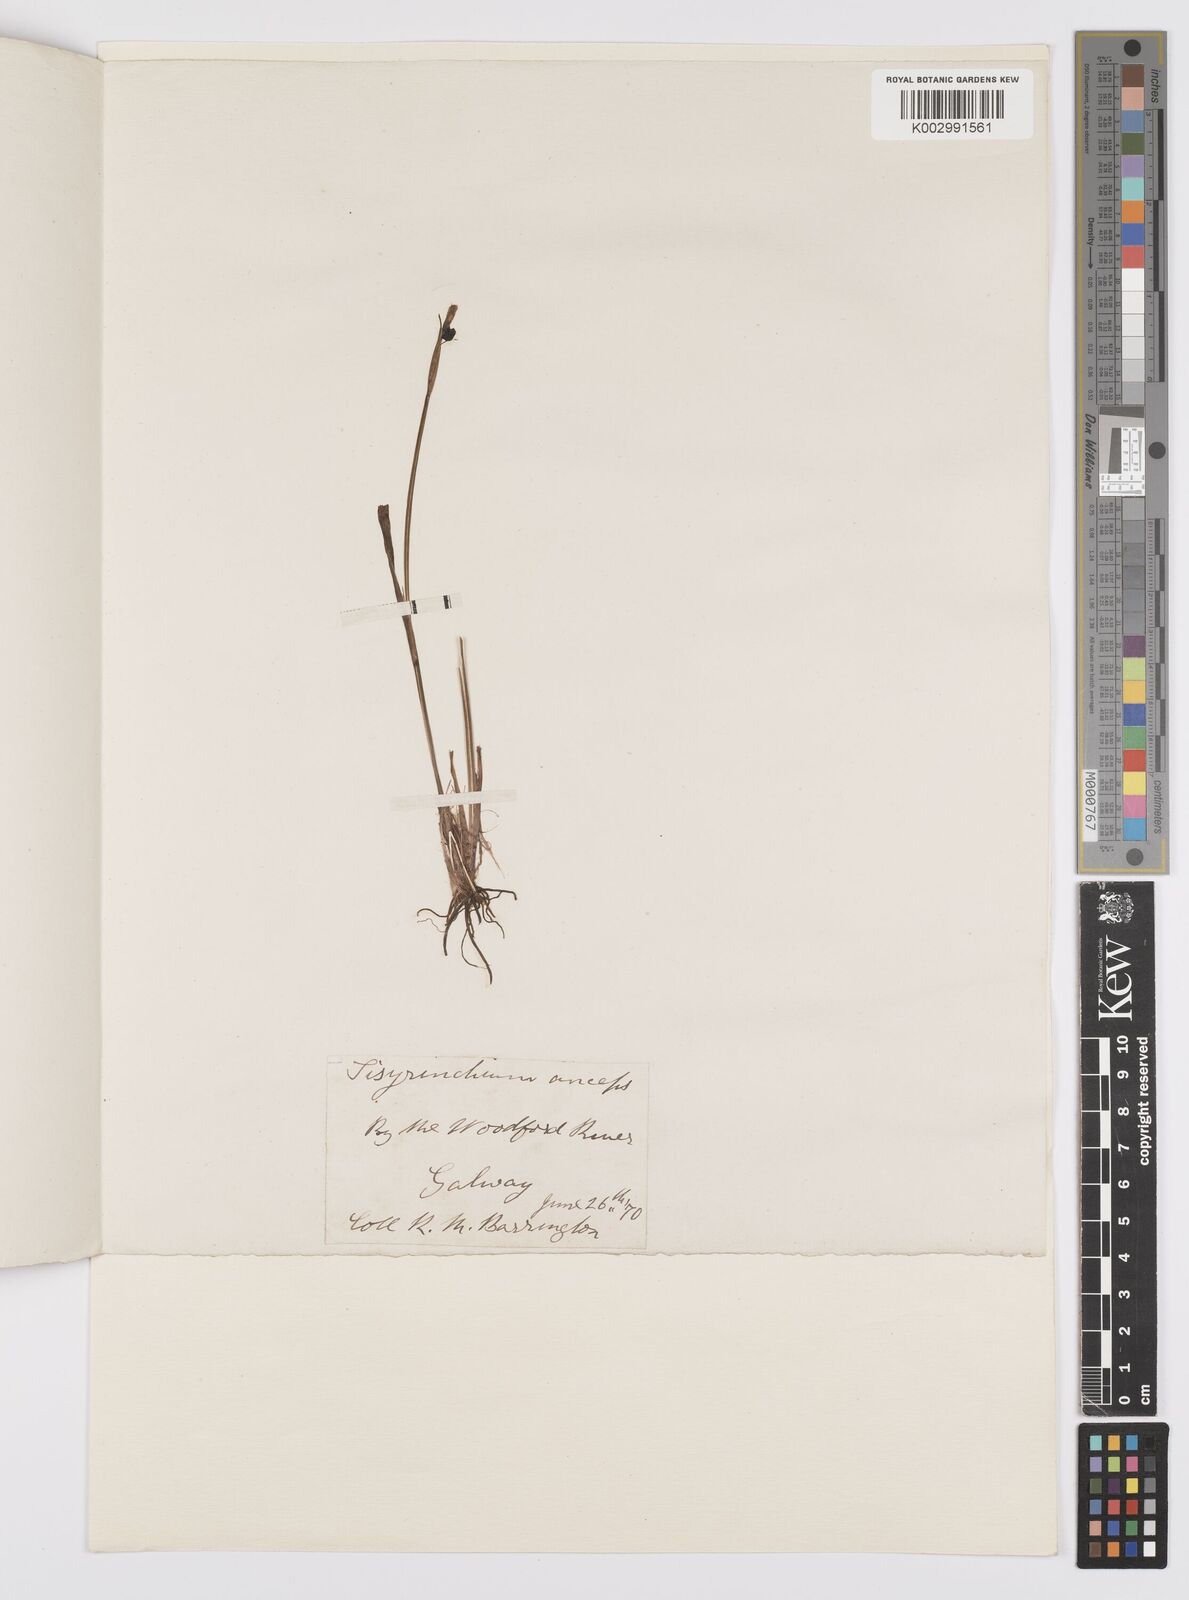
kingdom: Plantae
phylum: Tracheophyta
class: Liliopsida
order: Asparagales
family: Iridaceae
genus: Sisyrinchium
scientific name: Sisyrinchium angustifolium
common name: Narrow-leaf blue-eyed-grass
